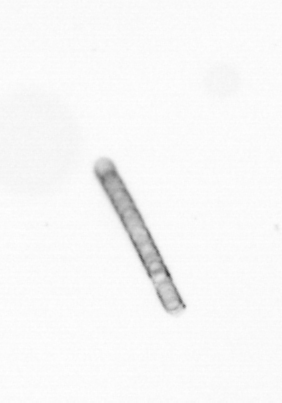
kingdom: Chromista
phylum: Ochrophyta
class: Bacillariophyceae
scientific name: Bacillariophyceae
